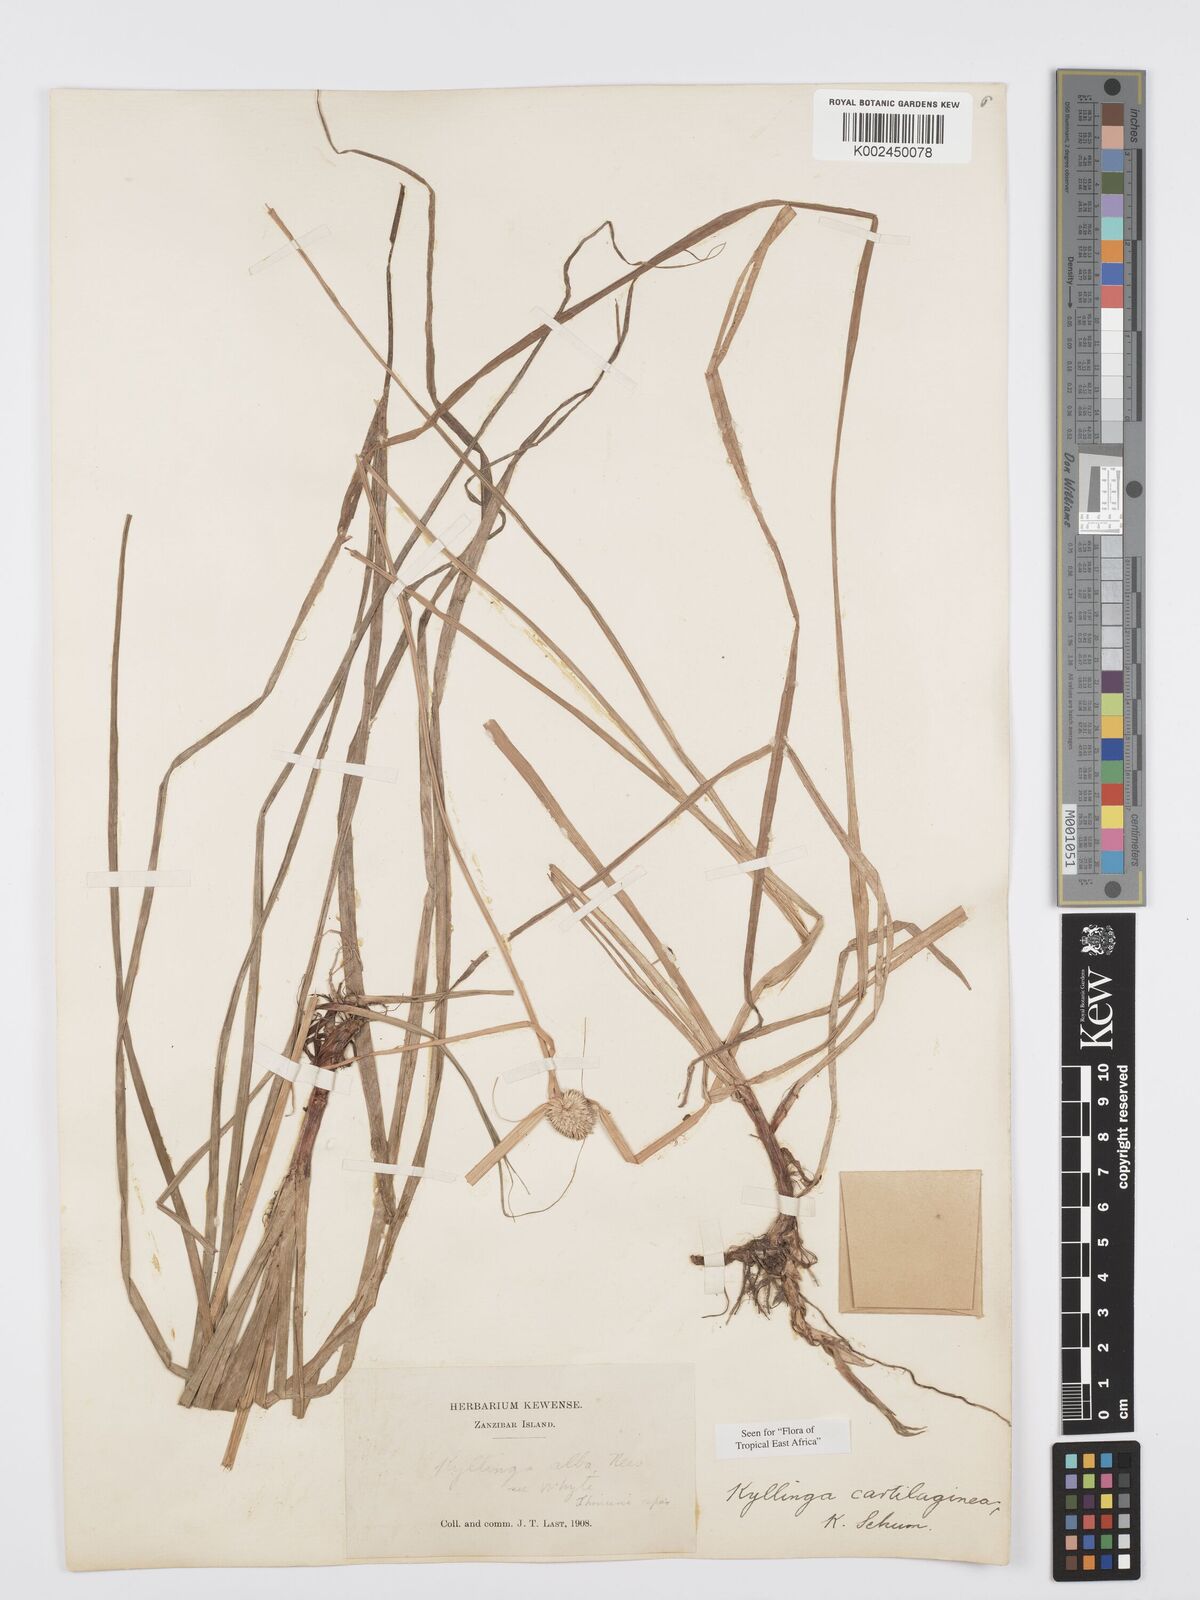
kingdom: Plantae
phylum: Tracheophyta
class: Liliopsida
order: Poales
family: Cyperaceae
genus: Cyperus
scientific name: Cyperus cartilagineus
